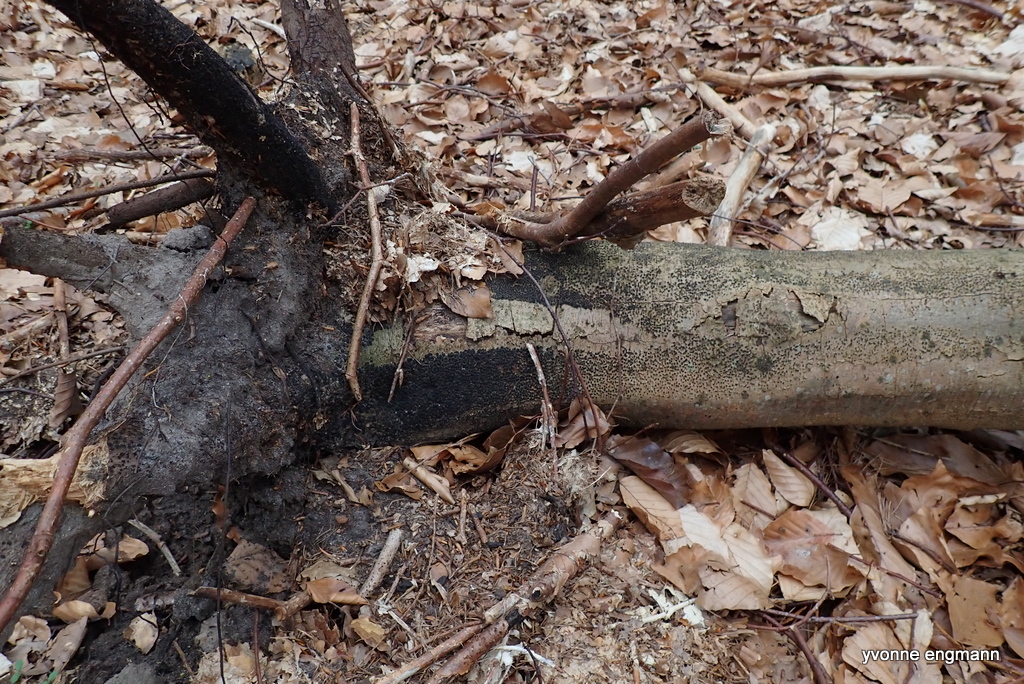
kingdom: Fungi
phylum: Ascomycota
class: Sordariomycetes
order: Xylariales
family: Melogrammataceae
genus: Melogramma
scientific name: Melogramma spiniferum
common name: bøgefod-kulhals
